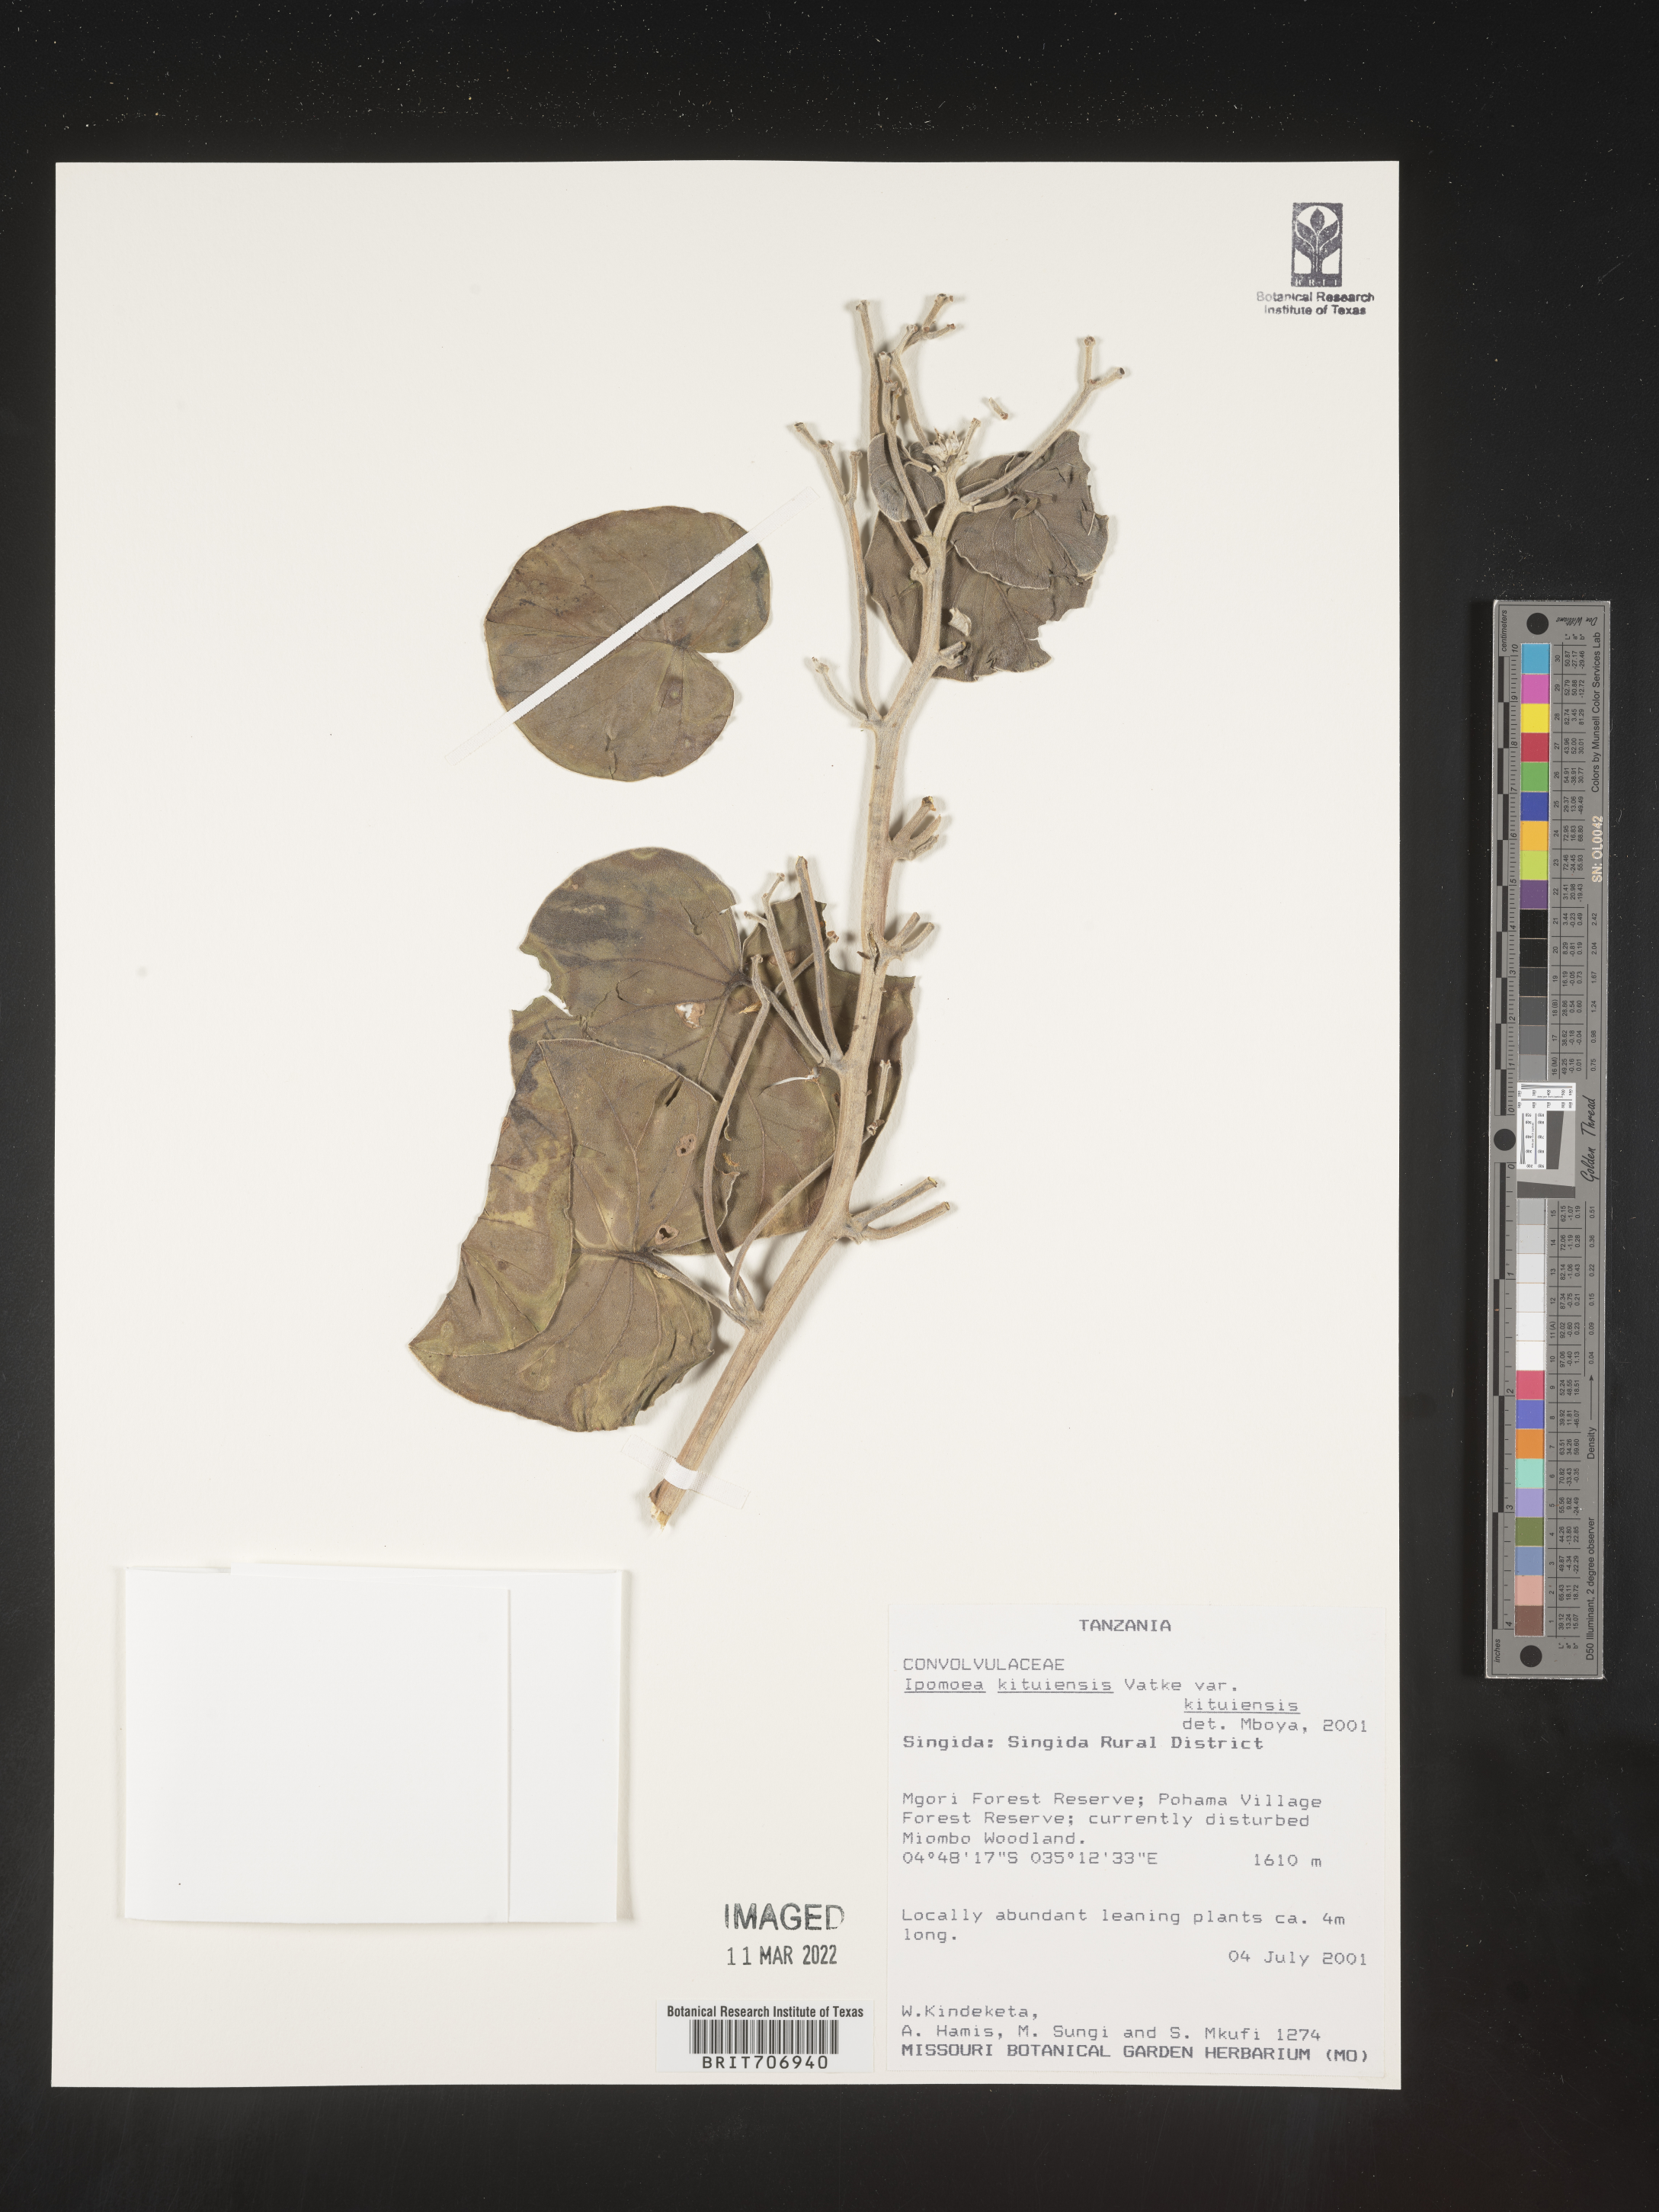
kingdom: Plantae
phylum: Tracheophyta
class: Magnoliopsida
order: Solanales
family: Convolvulaceae
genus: Ipomoea
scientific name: Ipomoea
